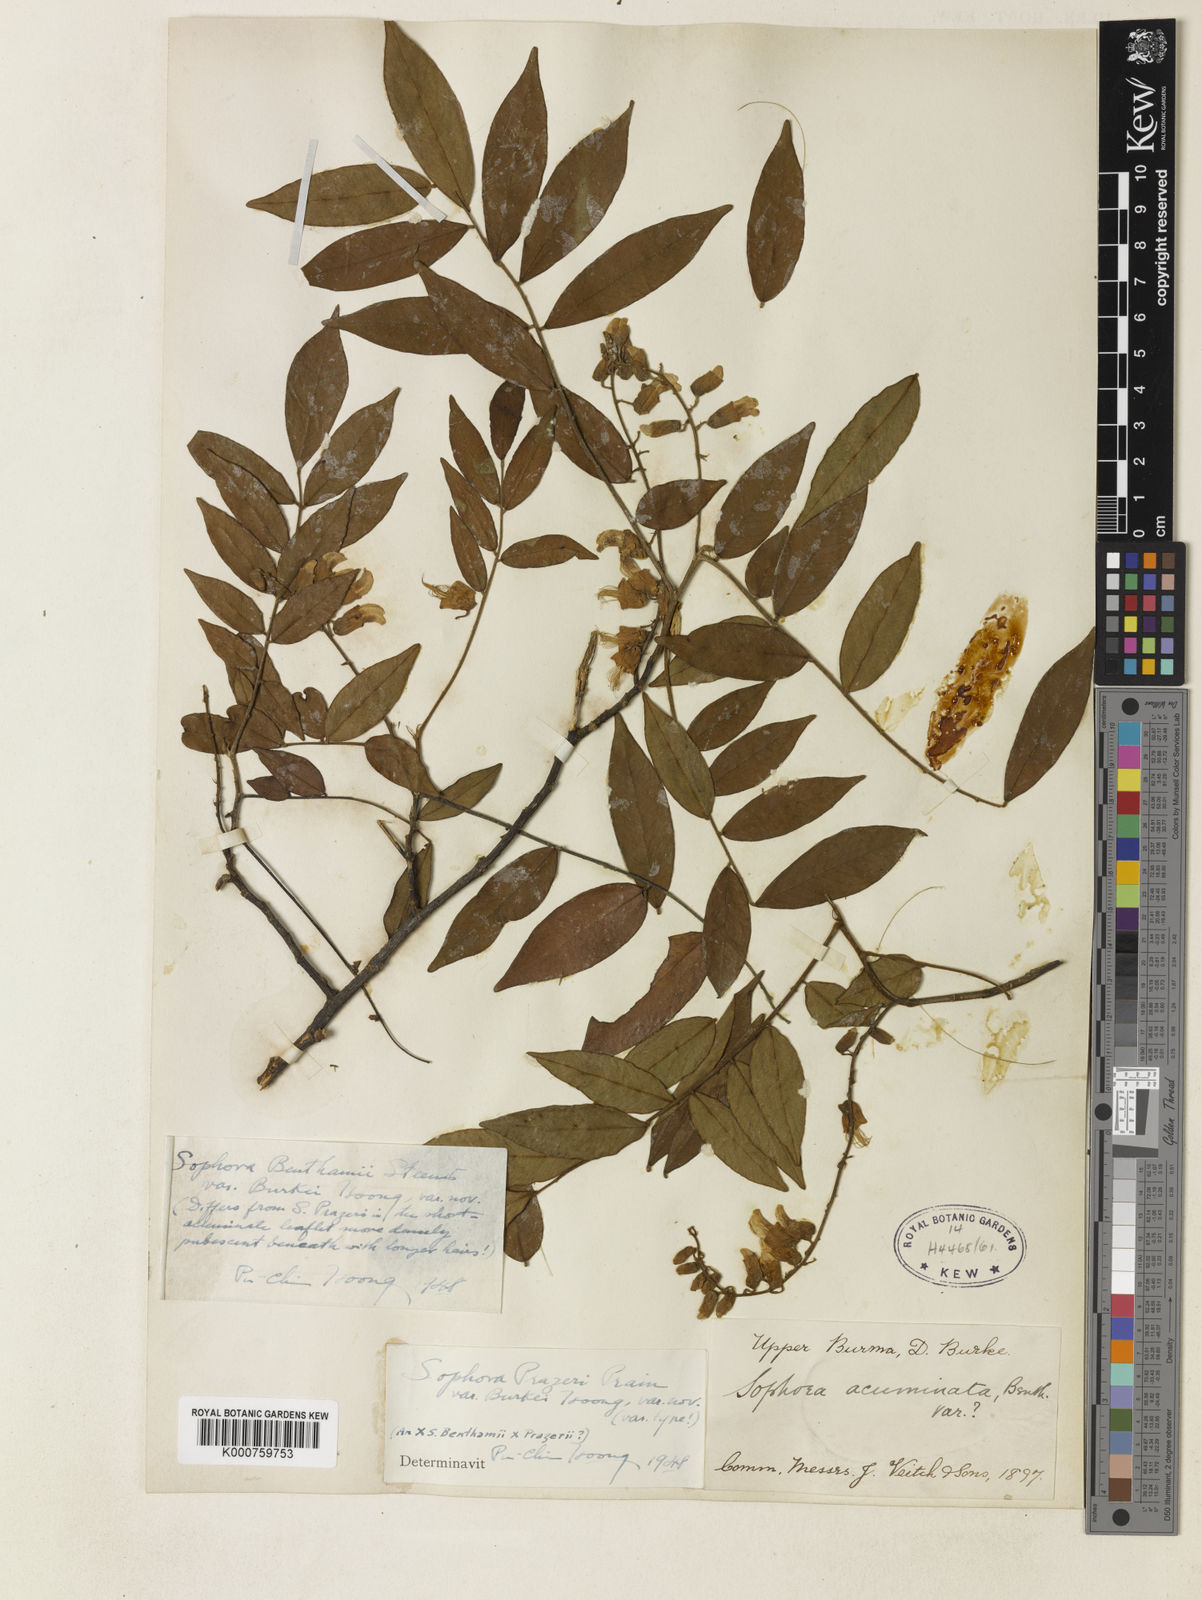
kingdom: Plantae
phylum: Tracheophyta
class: Magnoliopsida
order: Fabales
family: Fabaceae
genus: Sophora
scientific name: Sophora wightii
